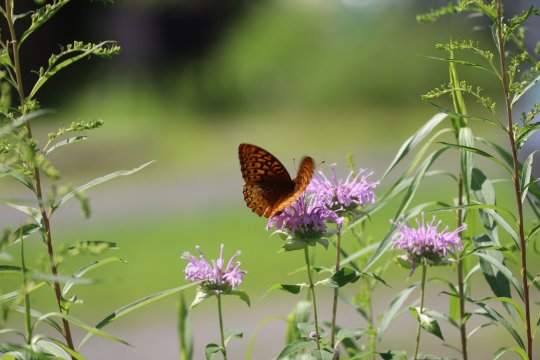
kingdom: Animalia
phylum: Arthropoda
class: Insecta
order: Lepidoptera
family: Nymphalidae
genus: Speyeria
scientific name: Speyeria cybele
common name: Great Spangled Fritillary
